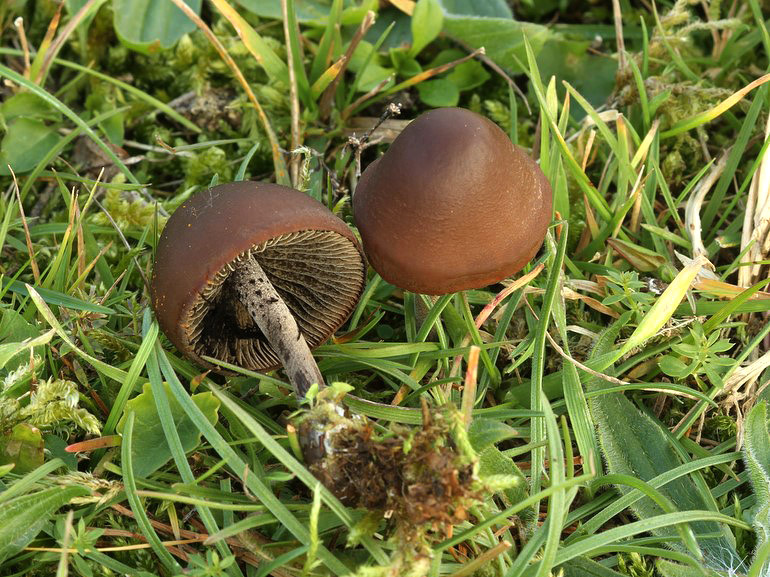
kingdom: Fungi
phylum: Basidiomycota
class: Agaricomycetes
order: Agaricales
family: Bolbitiaceae
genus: Panaeolus
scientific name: Panaeolus acuminatus
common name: høj glanshat
